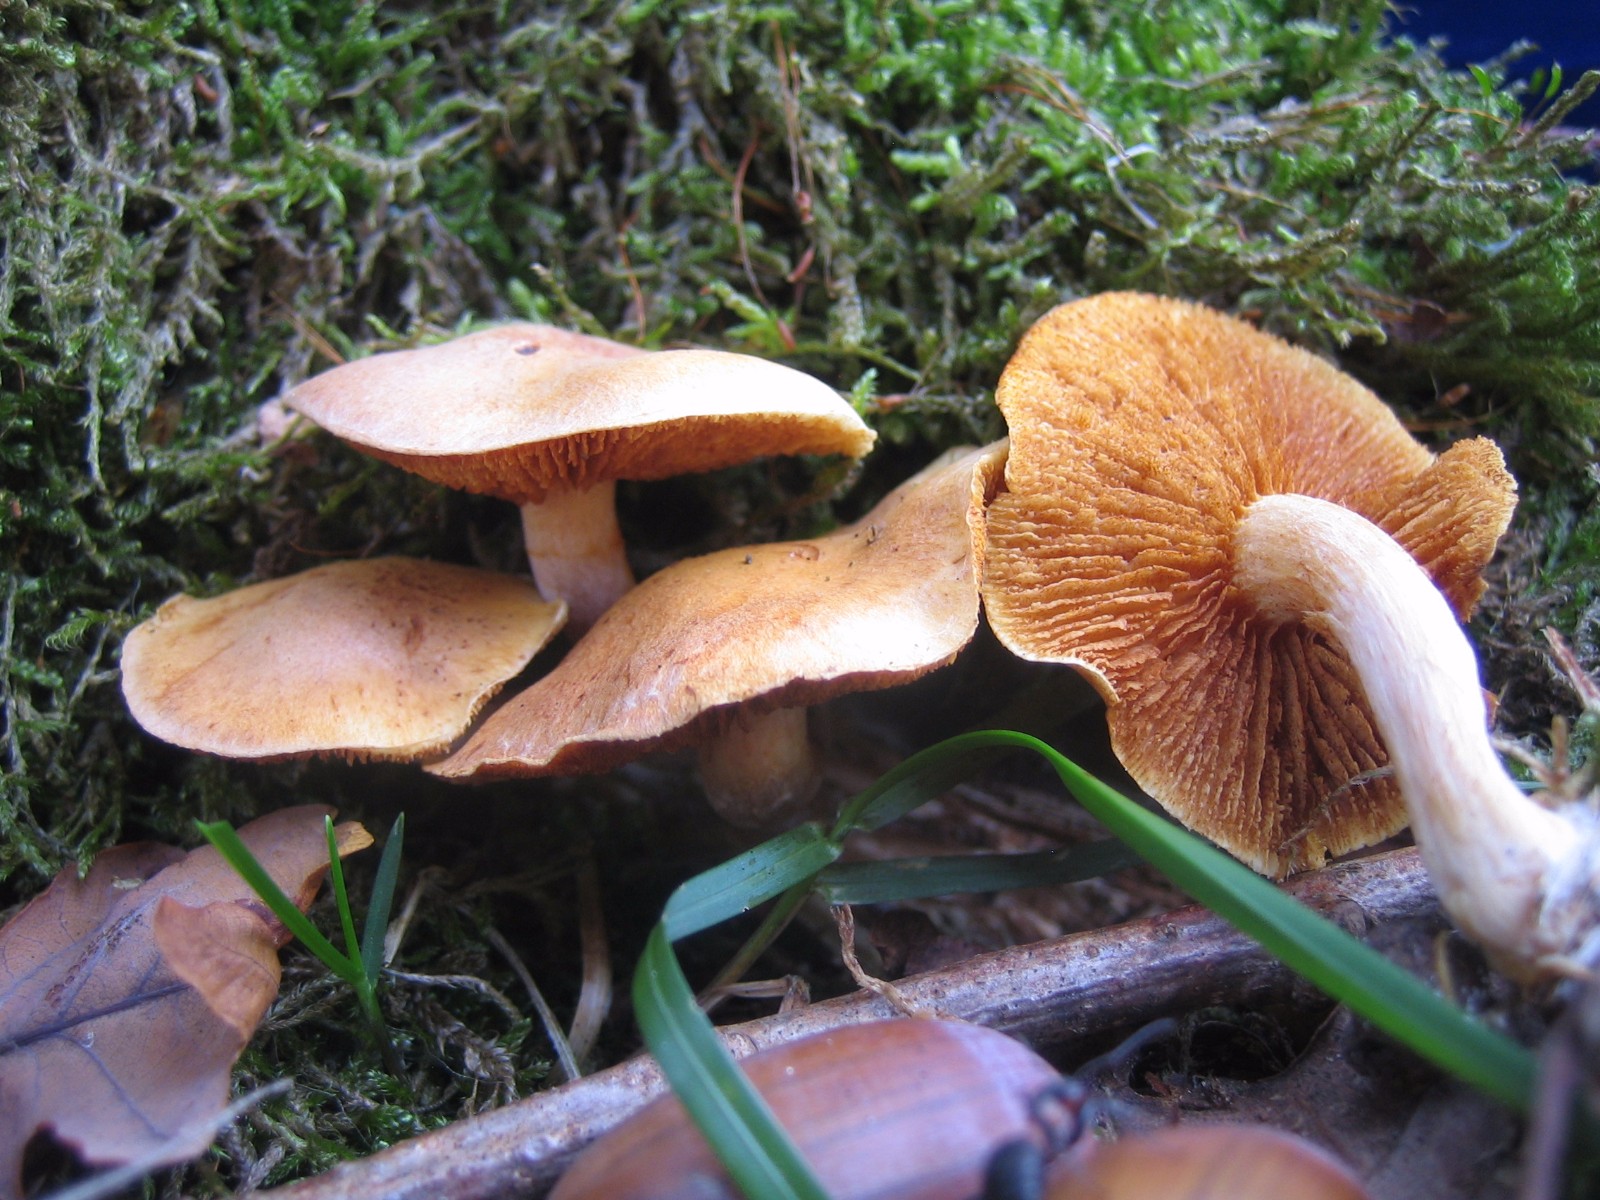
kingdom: Fungi
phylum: Basidiomycota
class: Agaricomycetes
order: Agaricales
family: Hymenogastraceae
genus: Gymnopilus
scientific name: Gymnopilus penetrans
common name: plettet flammehat
